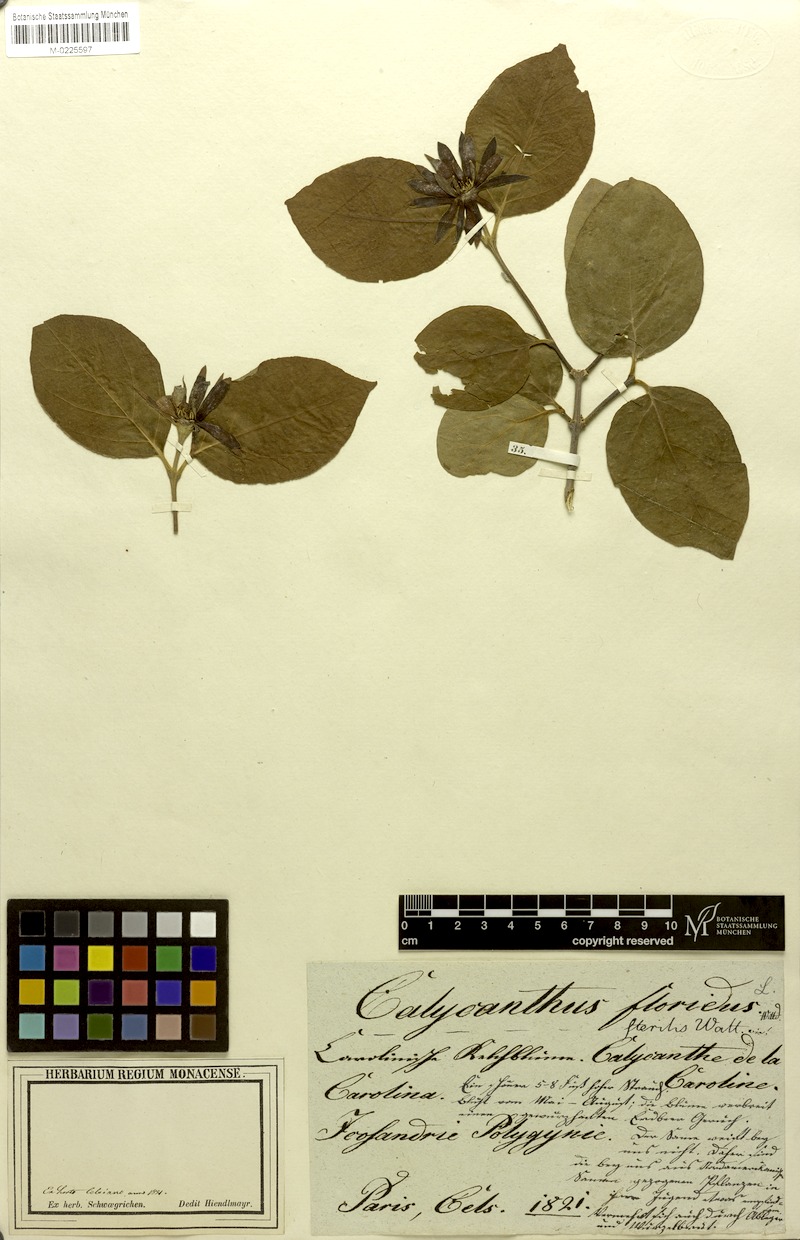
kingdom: Plantae
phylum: Tracheophyta
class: Magnoliopsida
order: Laurales
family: Calycanthaceae
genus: Calycanthus
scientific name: Calycanthus floridus
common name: Carolina-allspice
